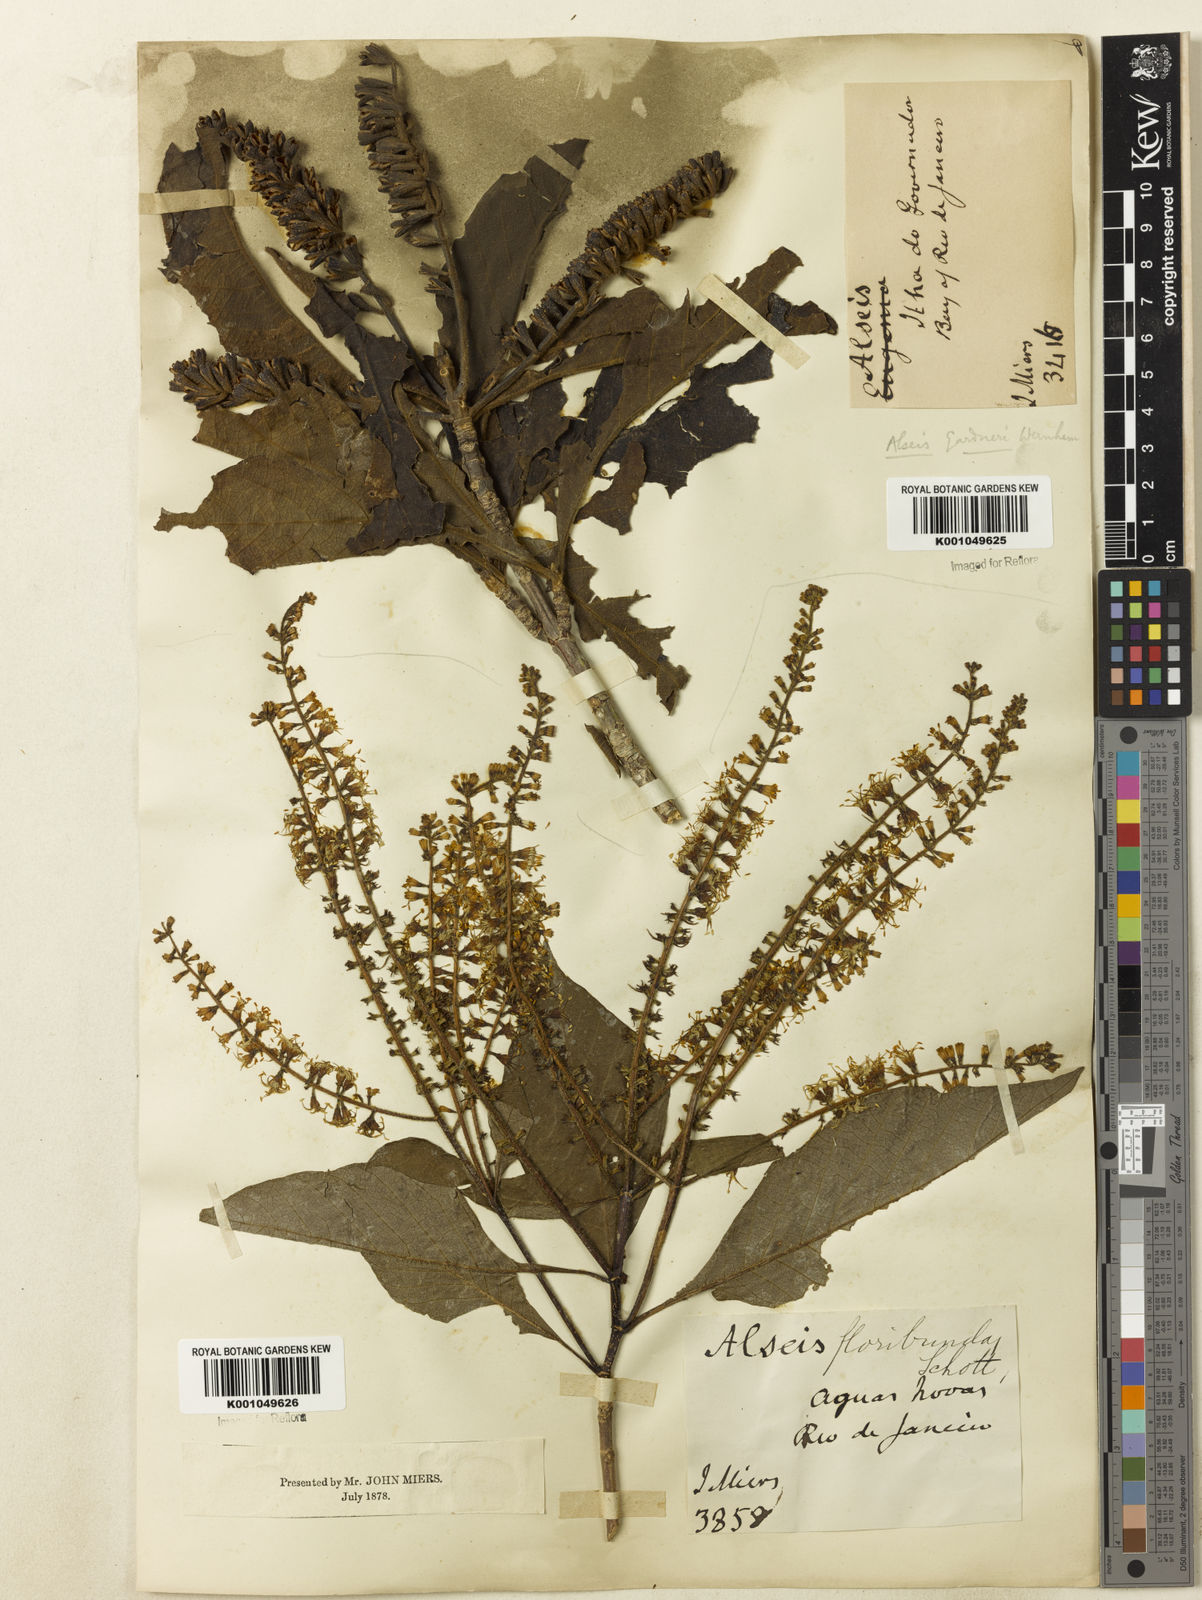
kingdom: Plantae
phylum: Tracheophyta
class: Magnoliopsida
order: Gentianales
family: Rubiaceae
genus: Alseis
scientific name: Alseis gardneri
